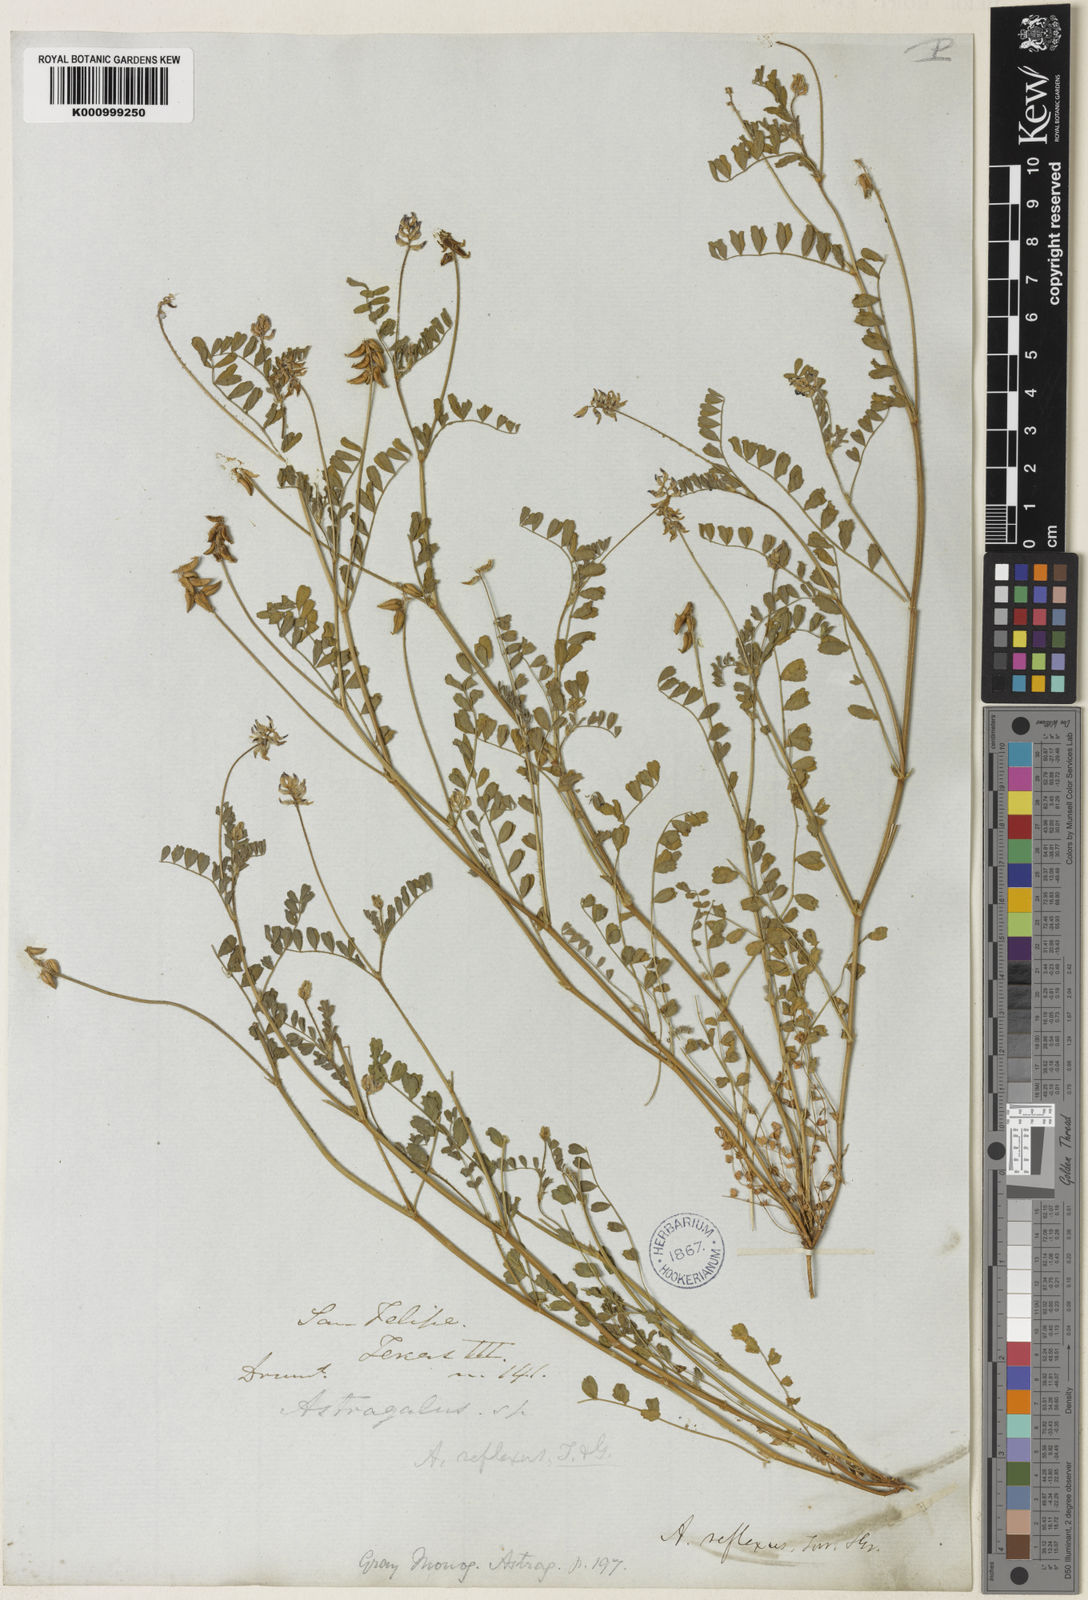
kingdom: Plantae
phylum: Tracheophyta
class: Magnoliopsida
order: Fabales
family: Fabaceae
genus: Astragalus
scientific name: Astragalus reflexus
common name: Texas milk-vetch
